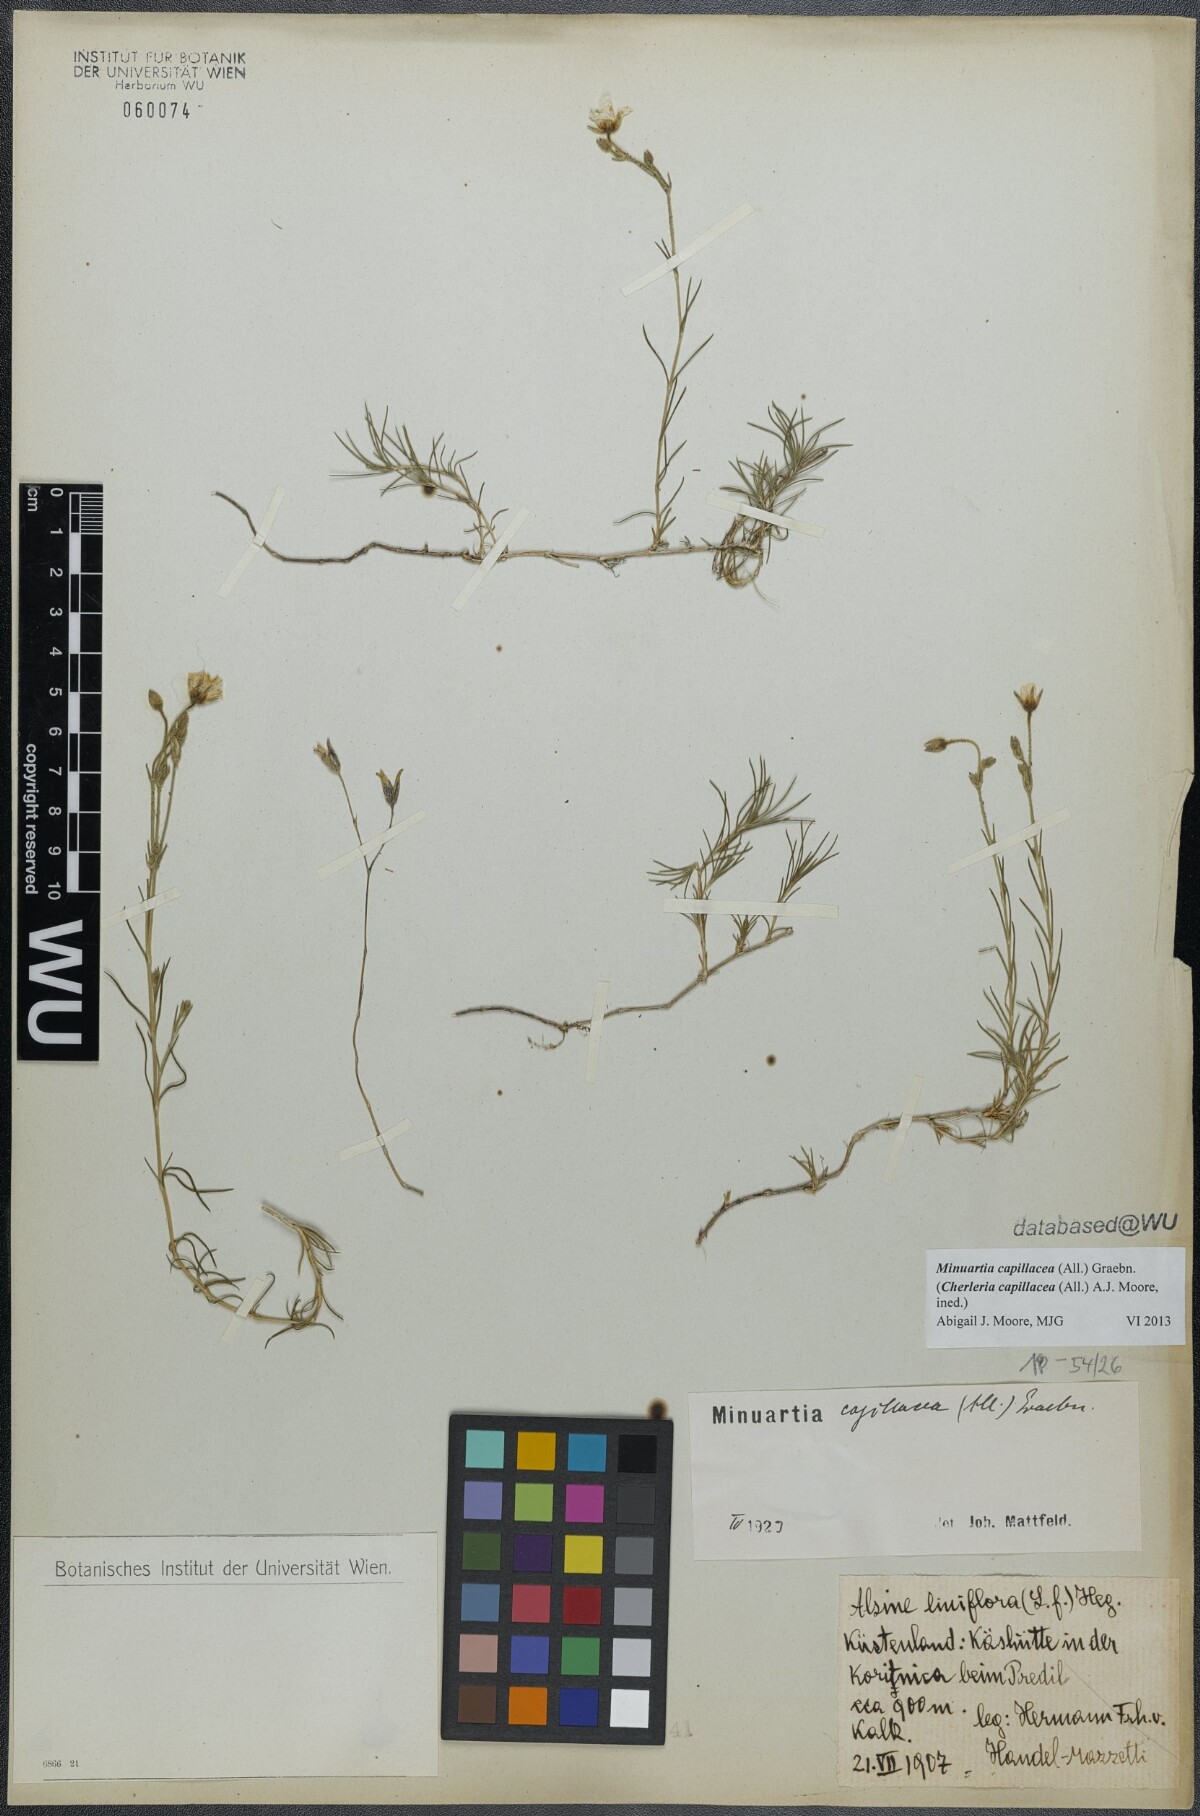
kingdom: Plantae
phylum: Tracheophyta
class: Magnoliopsida
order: Caryophyllales
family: Caryophyllaceae
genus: Cherleria
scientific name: Cherleria capillacea
